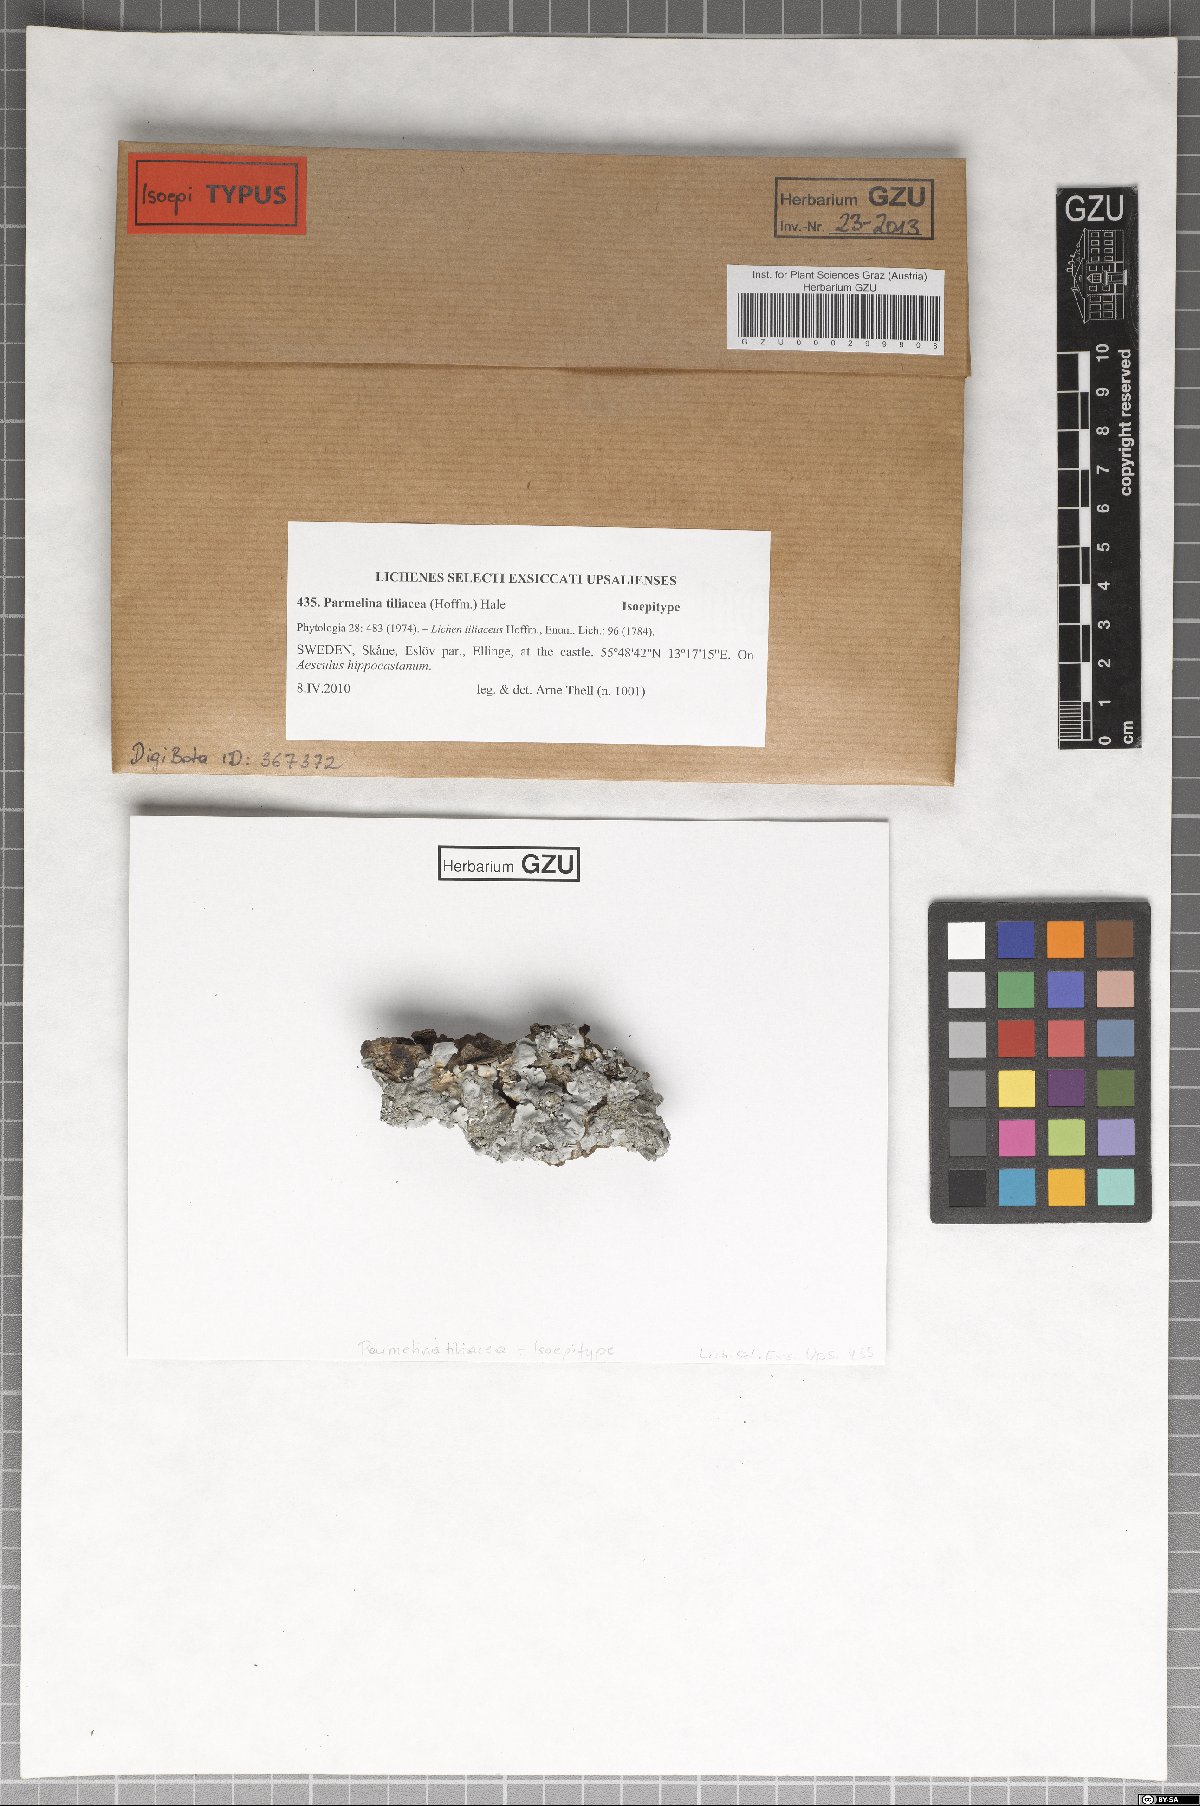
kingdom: Fungi
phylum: Ascomycota
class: Lecanoromycetes
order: Lecanorales
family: Parmeliaceae
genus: Parmelina
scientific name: Parmelina tiliacea
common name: Linden shield lichen
